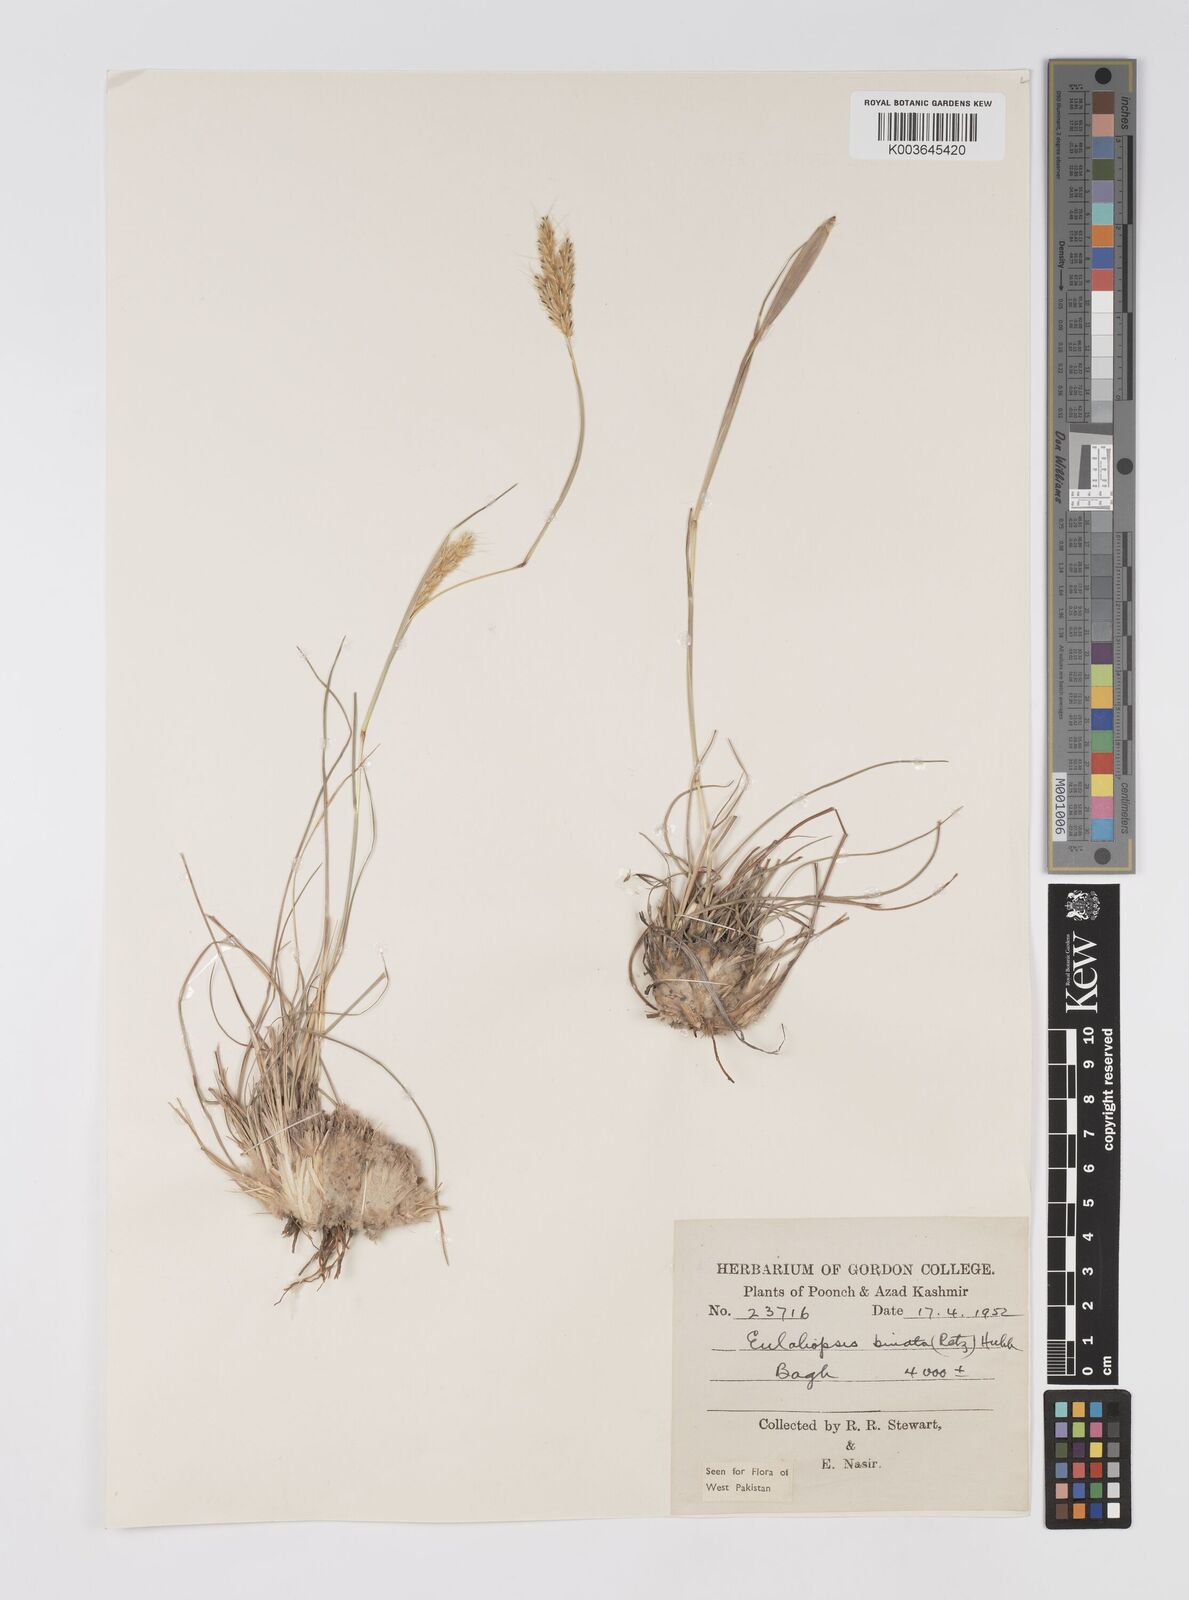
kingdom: Plantae
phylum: Tracheophyta
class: Liliopsida
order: Poales
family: Poaceae
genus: Eulaliopsis
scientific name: Eulaliopsis binata
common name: Baib grass
